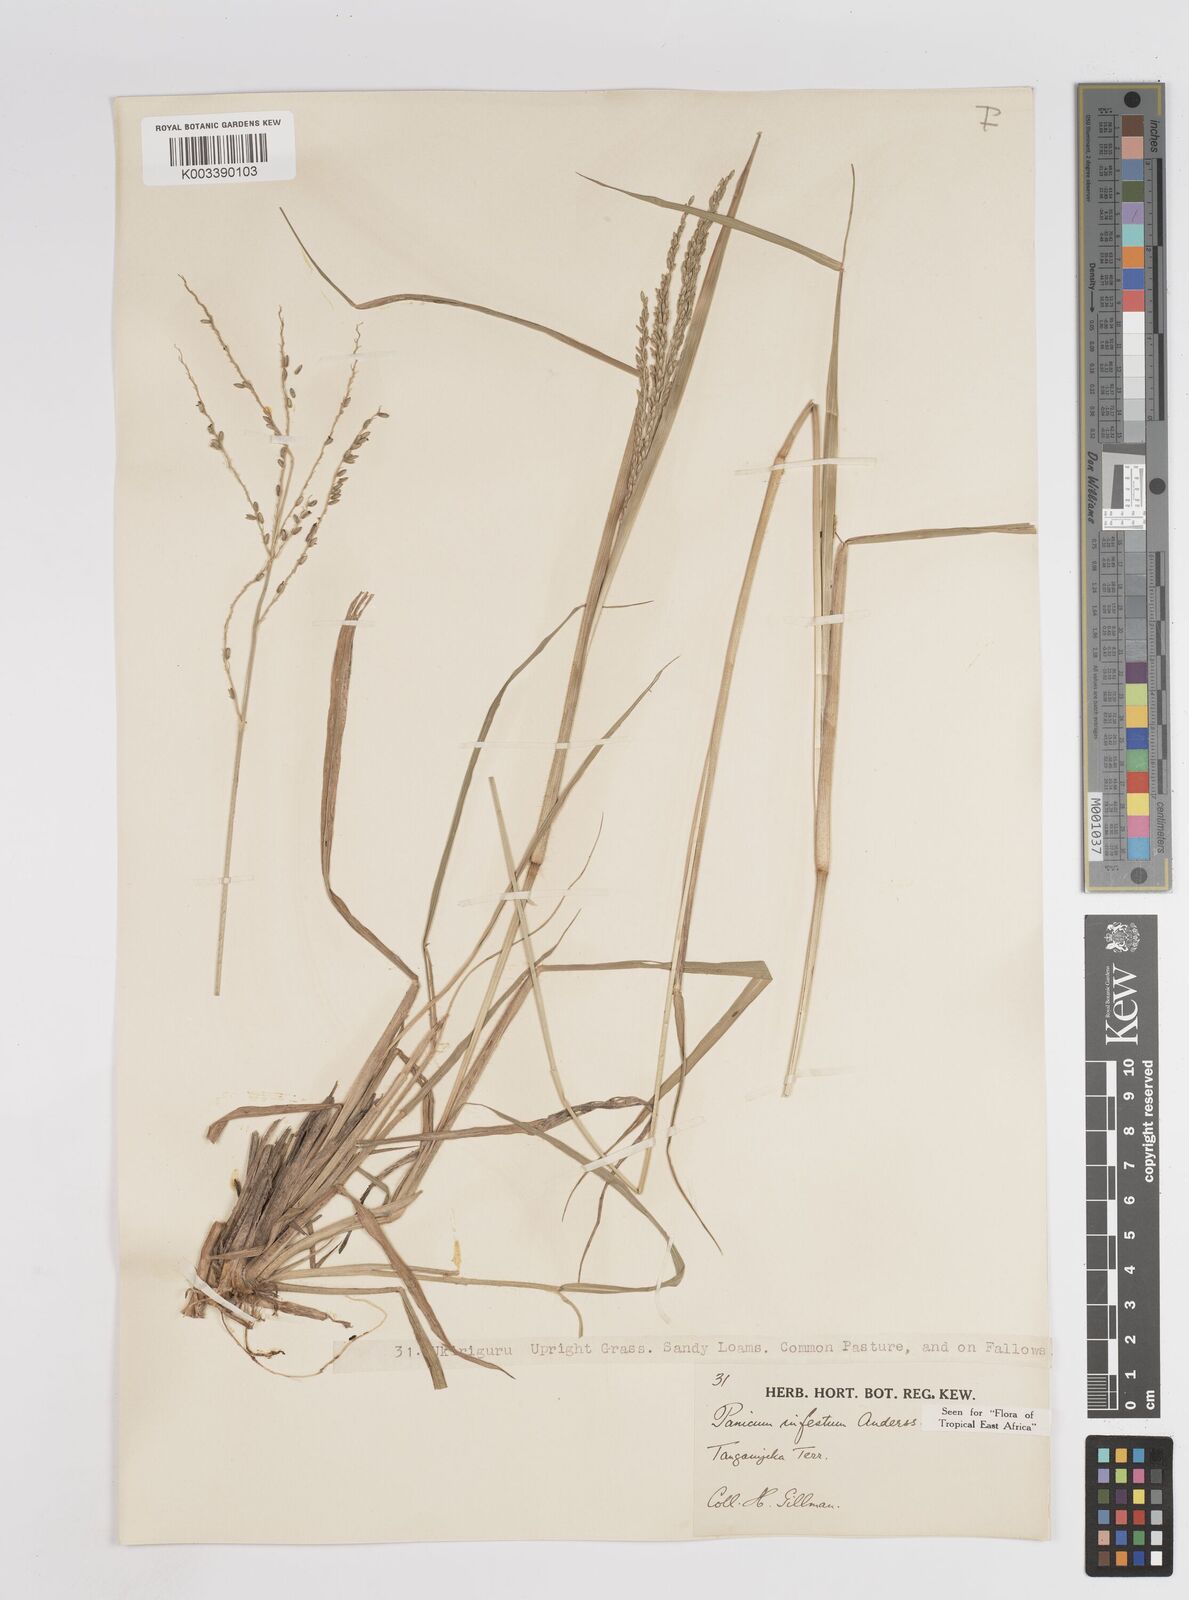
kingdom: Plantae
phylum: Tracheophyta
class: Liliopsida
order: Poales
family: Poaceae
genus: Megathyrsus
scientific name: Megathyrsus infestus
